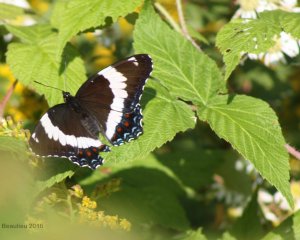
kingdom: Animalia
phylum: Arthropoda
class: Insecta
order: Lepidoptera
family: Nymphalidae
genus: Limenitis
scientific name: Limenitis arthemis
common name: Red-spotted Admiral
